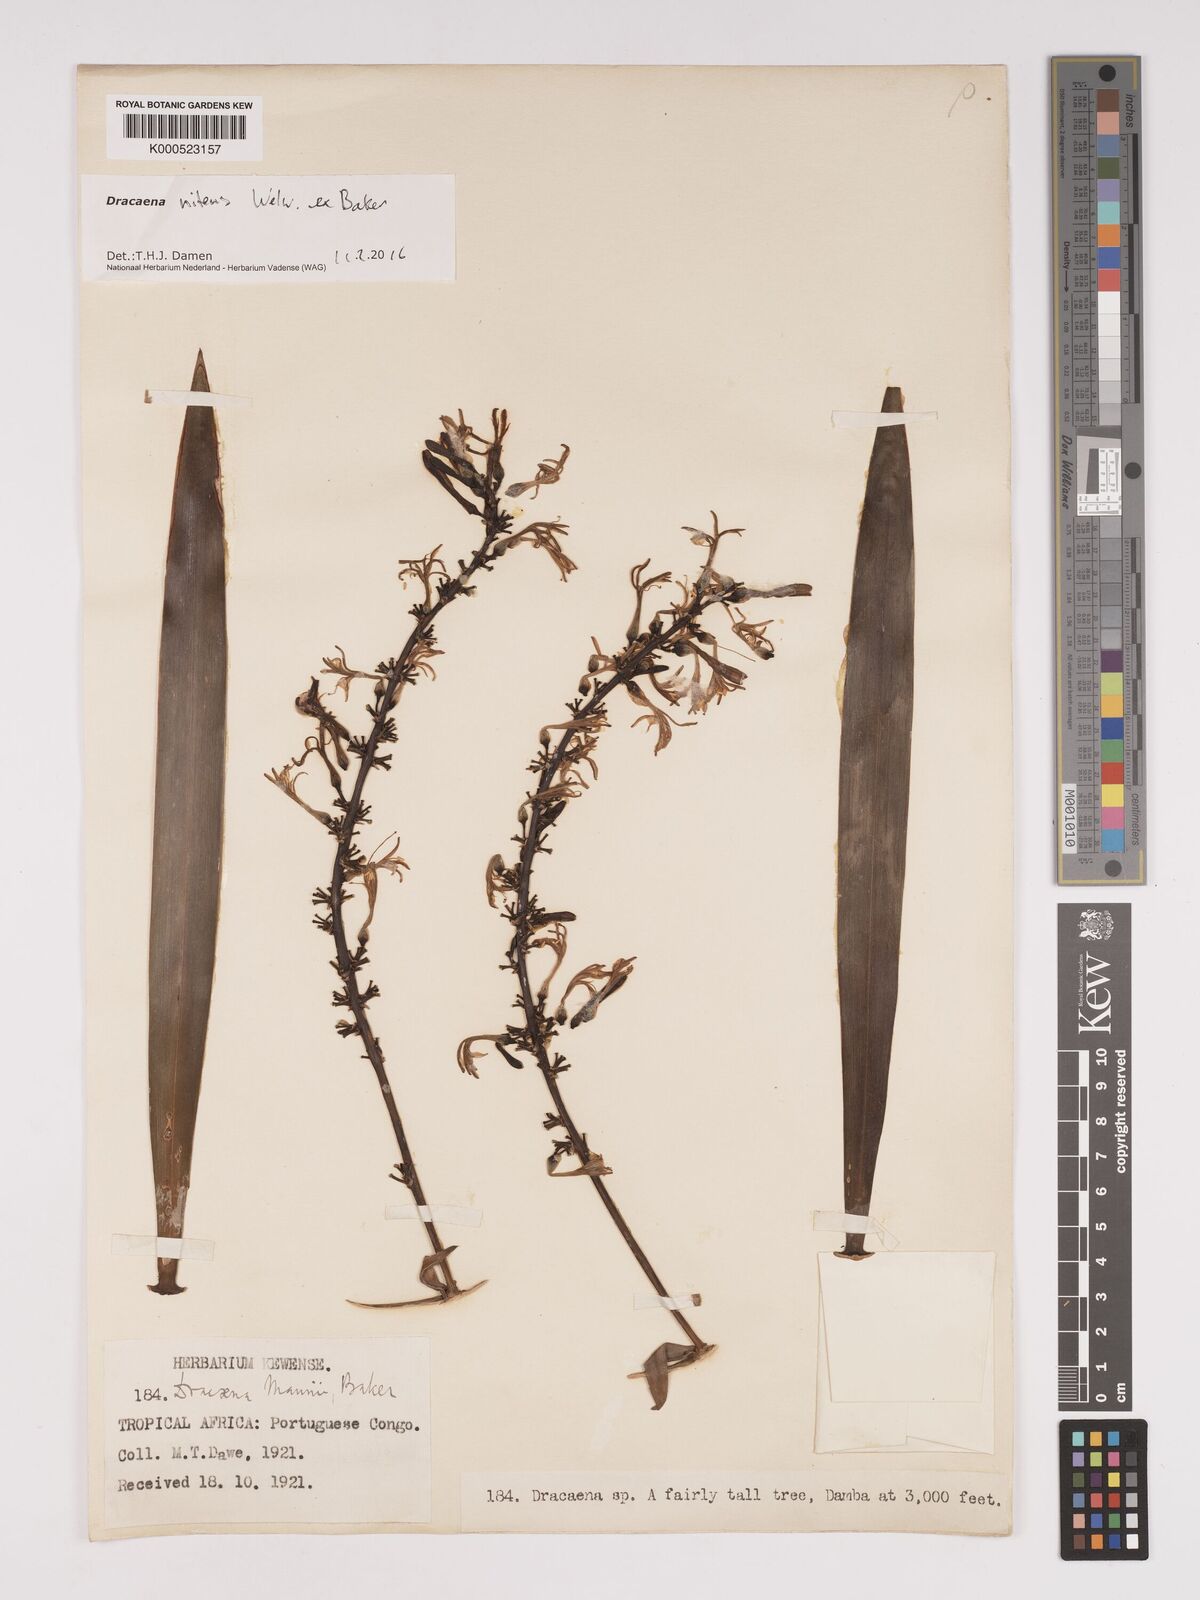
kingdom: Plantae
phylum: Tracheophyta
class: Liliopsida
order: Asparagales
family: Asparagaceae
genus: Dracaena
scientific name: Dracaena nitens
